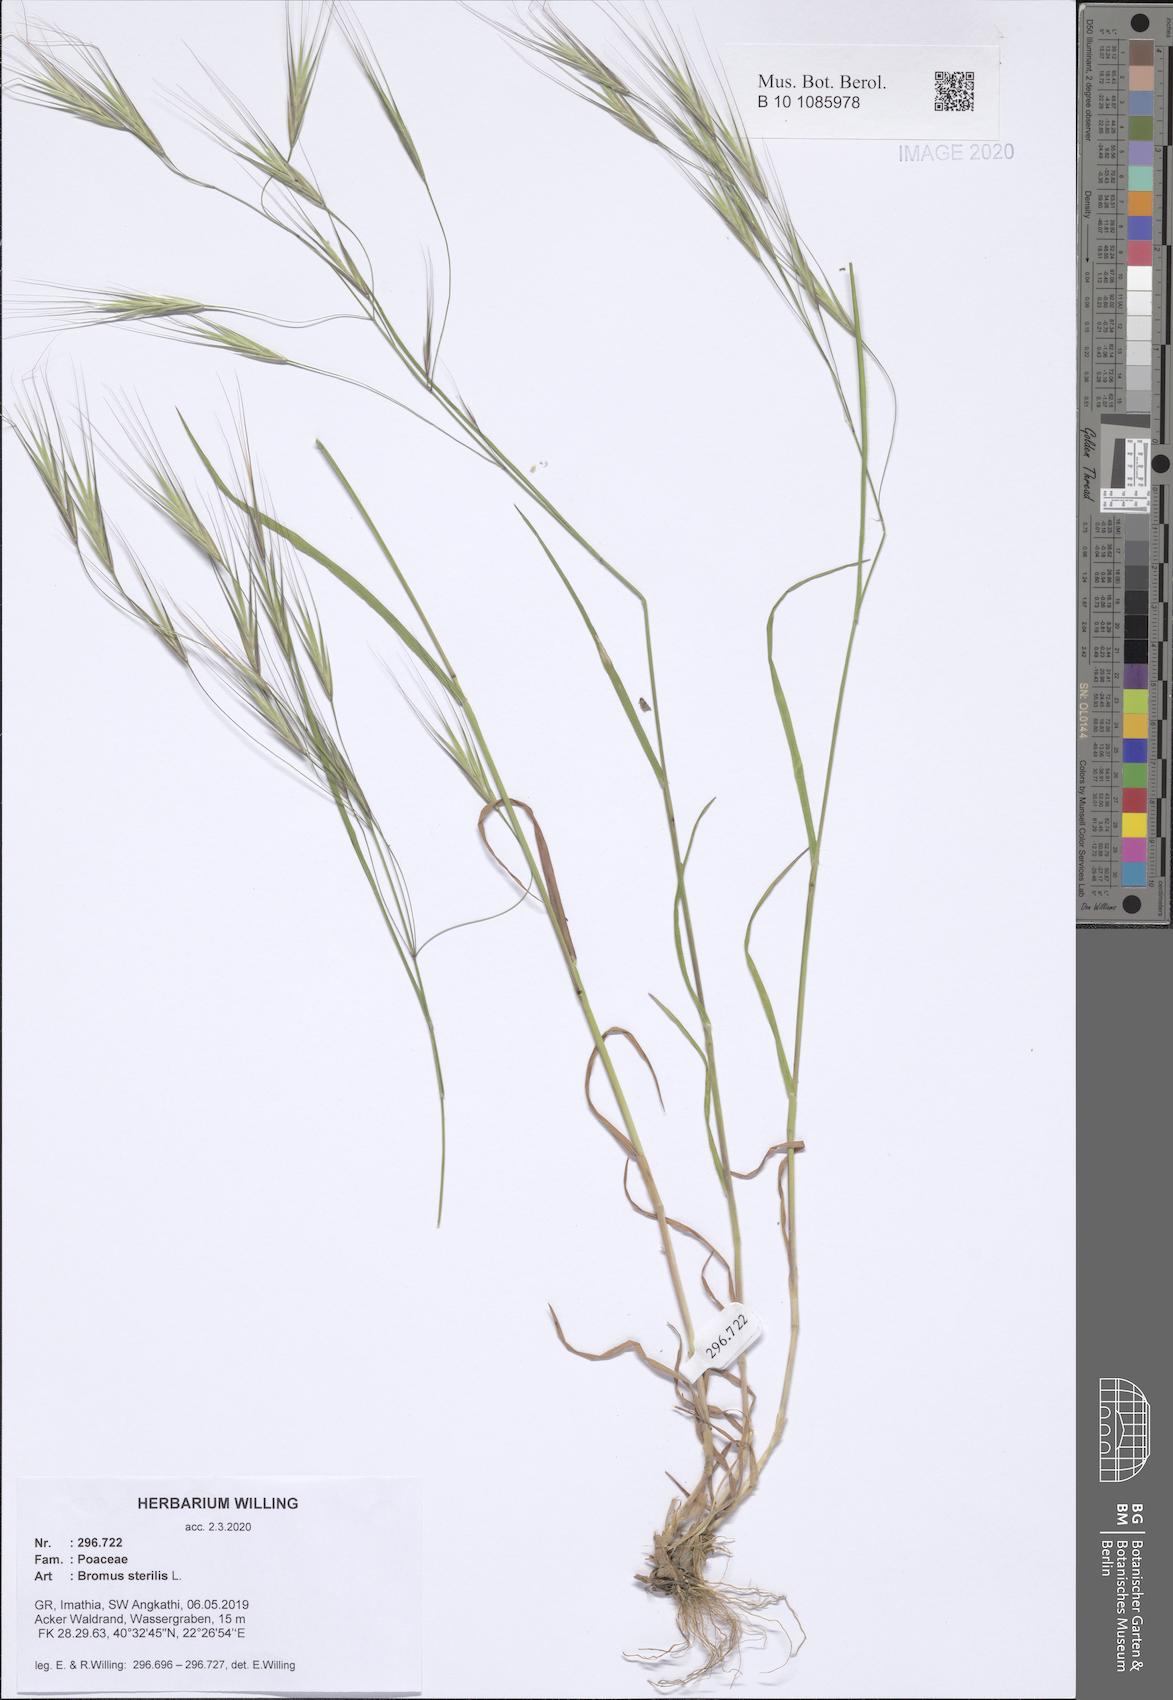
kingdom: Plantae
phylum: Tracheophyta
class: Liliopsida
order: Poales
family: Poaceae
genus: Bromus
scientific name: Bromus sterilis
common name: Poverty brome
